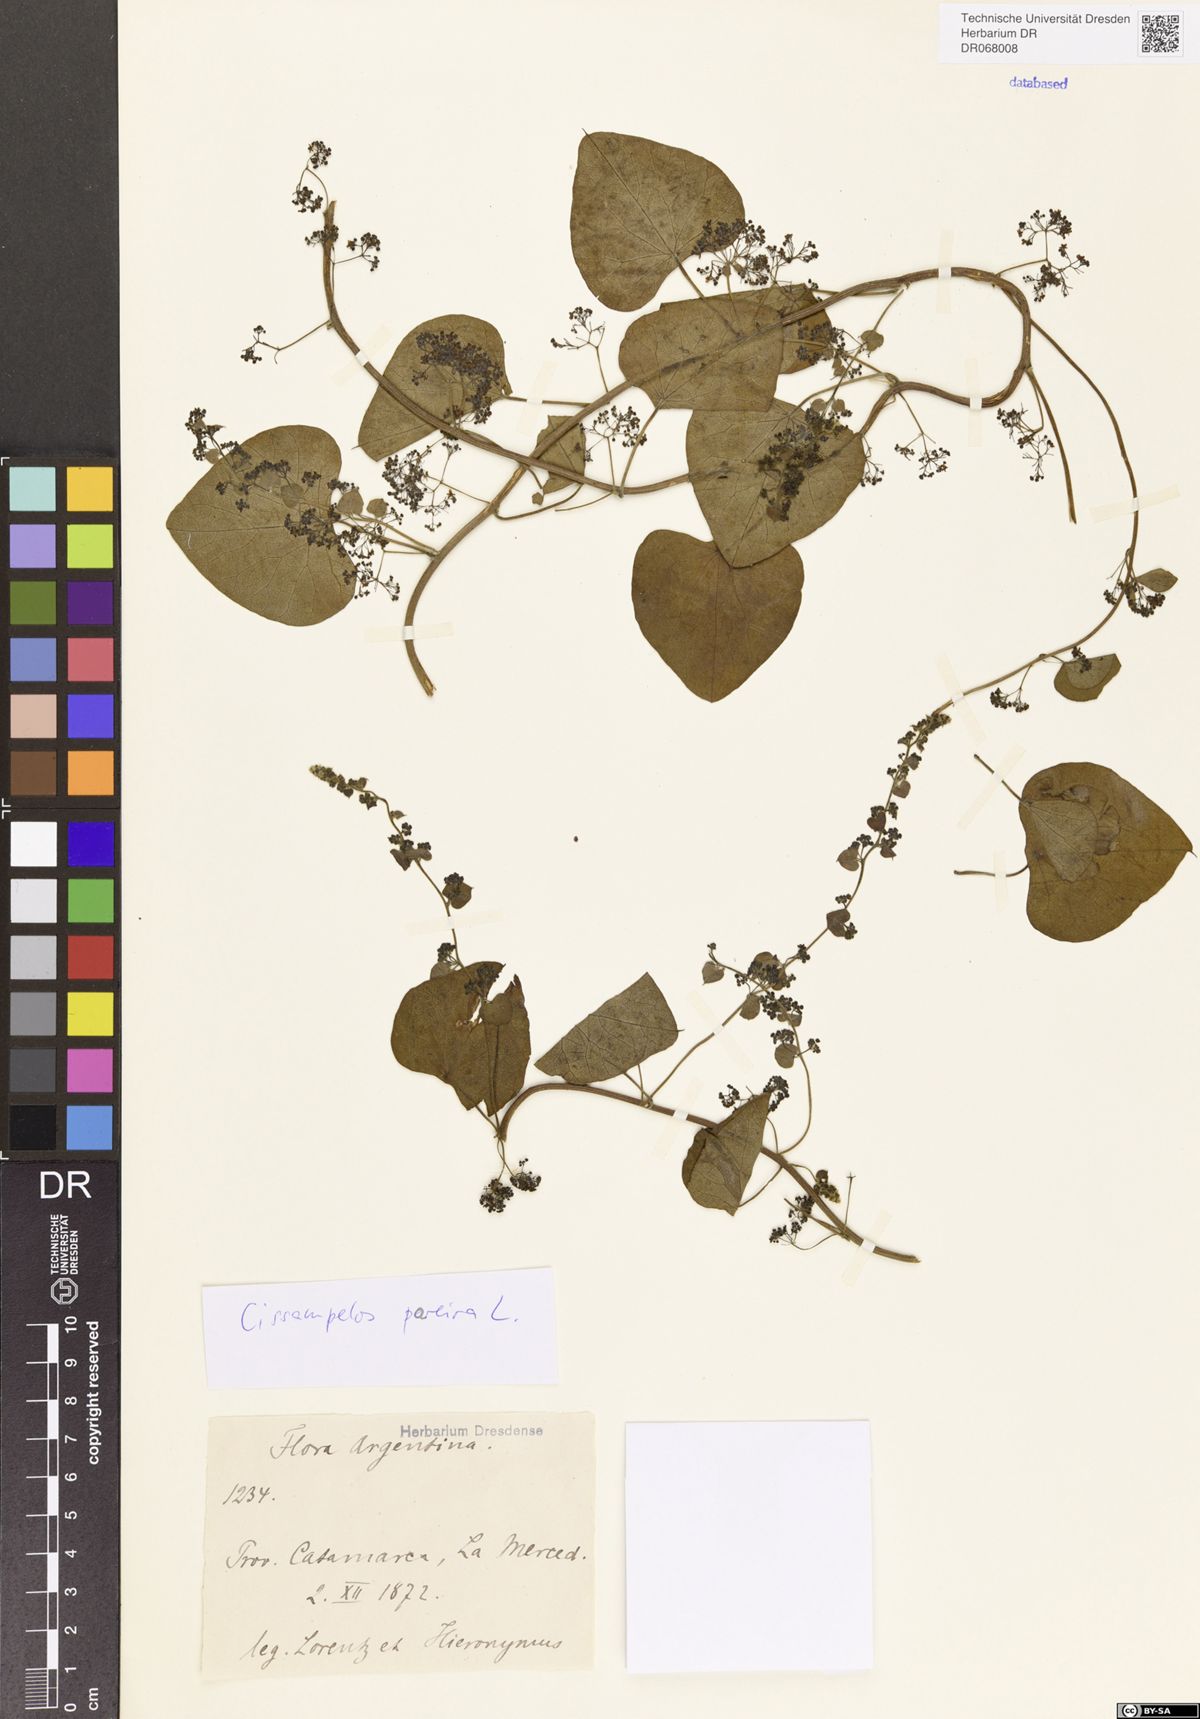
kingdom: Plantae
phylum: Tracheophyta
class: Magnoliopsida
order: Ranunculales
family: Menispermaceae
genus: Cissampelos
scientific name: Cissampelos pareira
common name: Velvetleaf
